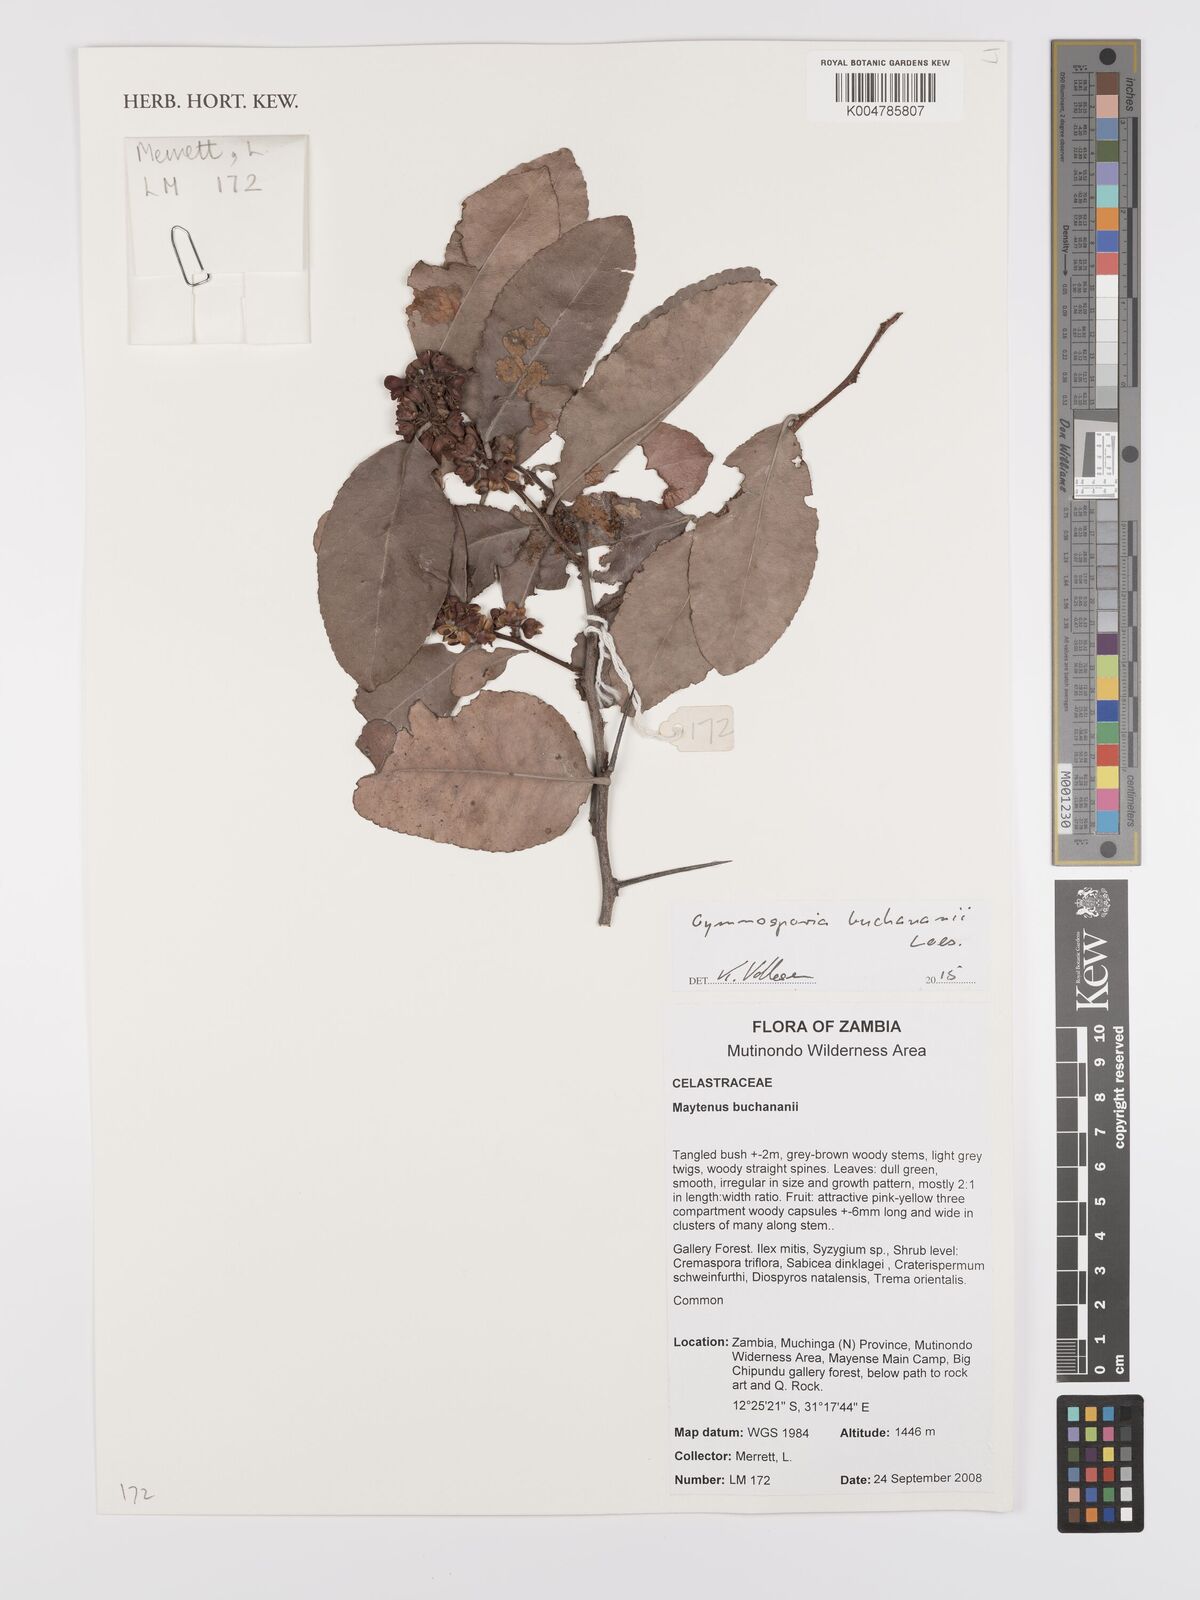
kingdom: Plantae
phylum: Tracheophyta
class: Magnoliopsida
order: Celastrales
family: Celastraceae
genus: Gymnosporia
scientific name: Gymnosporia buchananii
